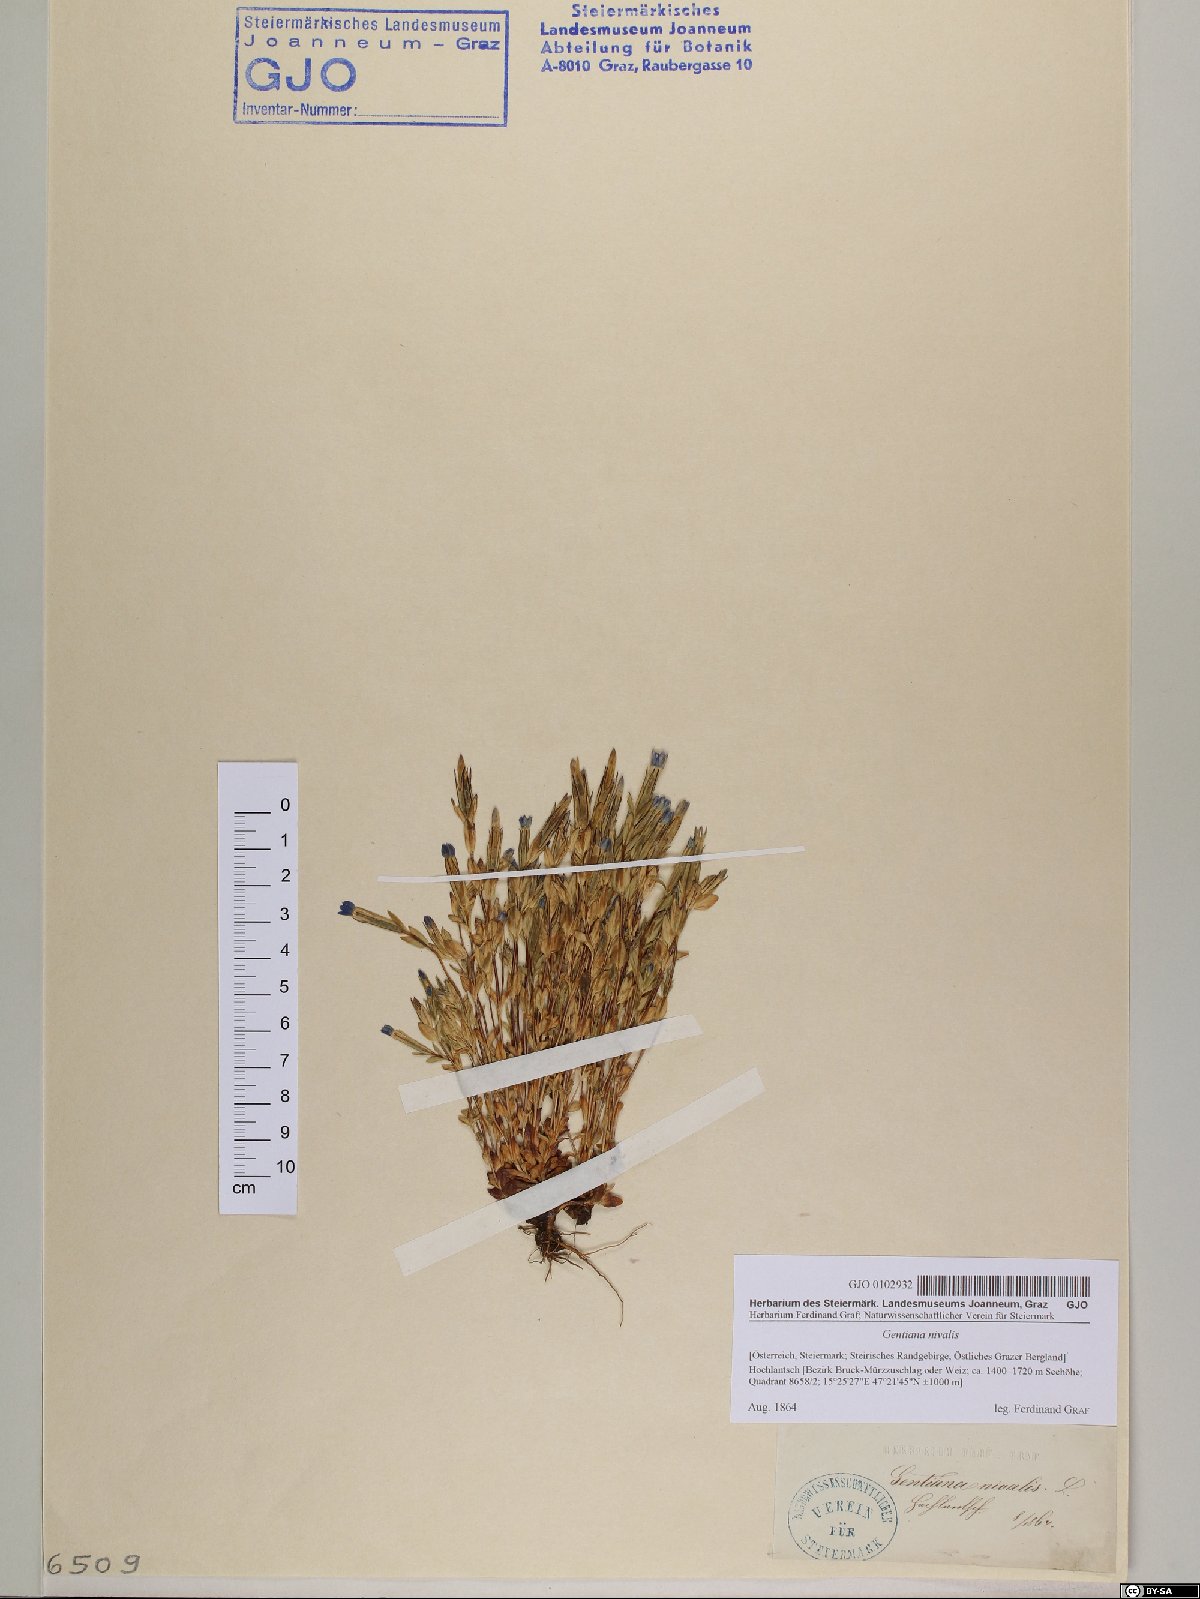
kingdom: Plantae
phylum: Tracheophyta
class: Magnoliopsida
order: Gentianales
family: Gentianaceae
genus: Gentiana
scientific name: Gentiana nivalis
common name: Alpine gentian
